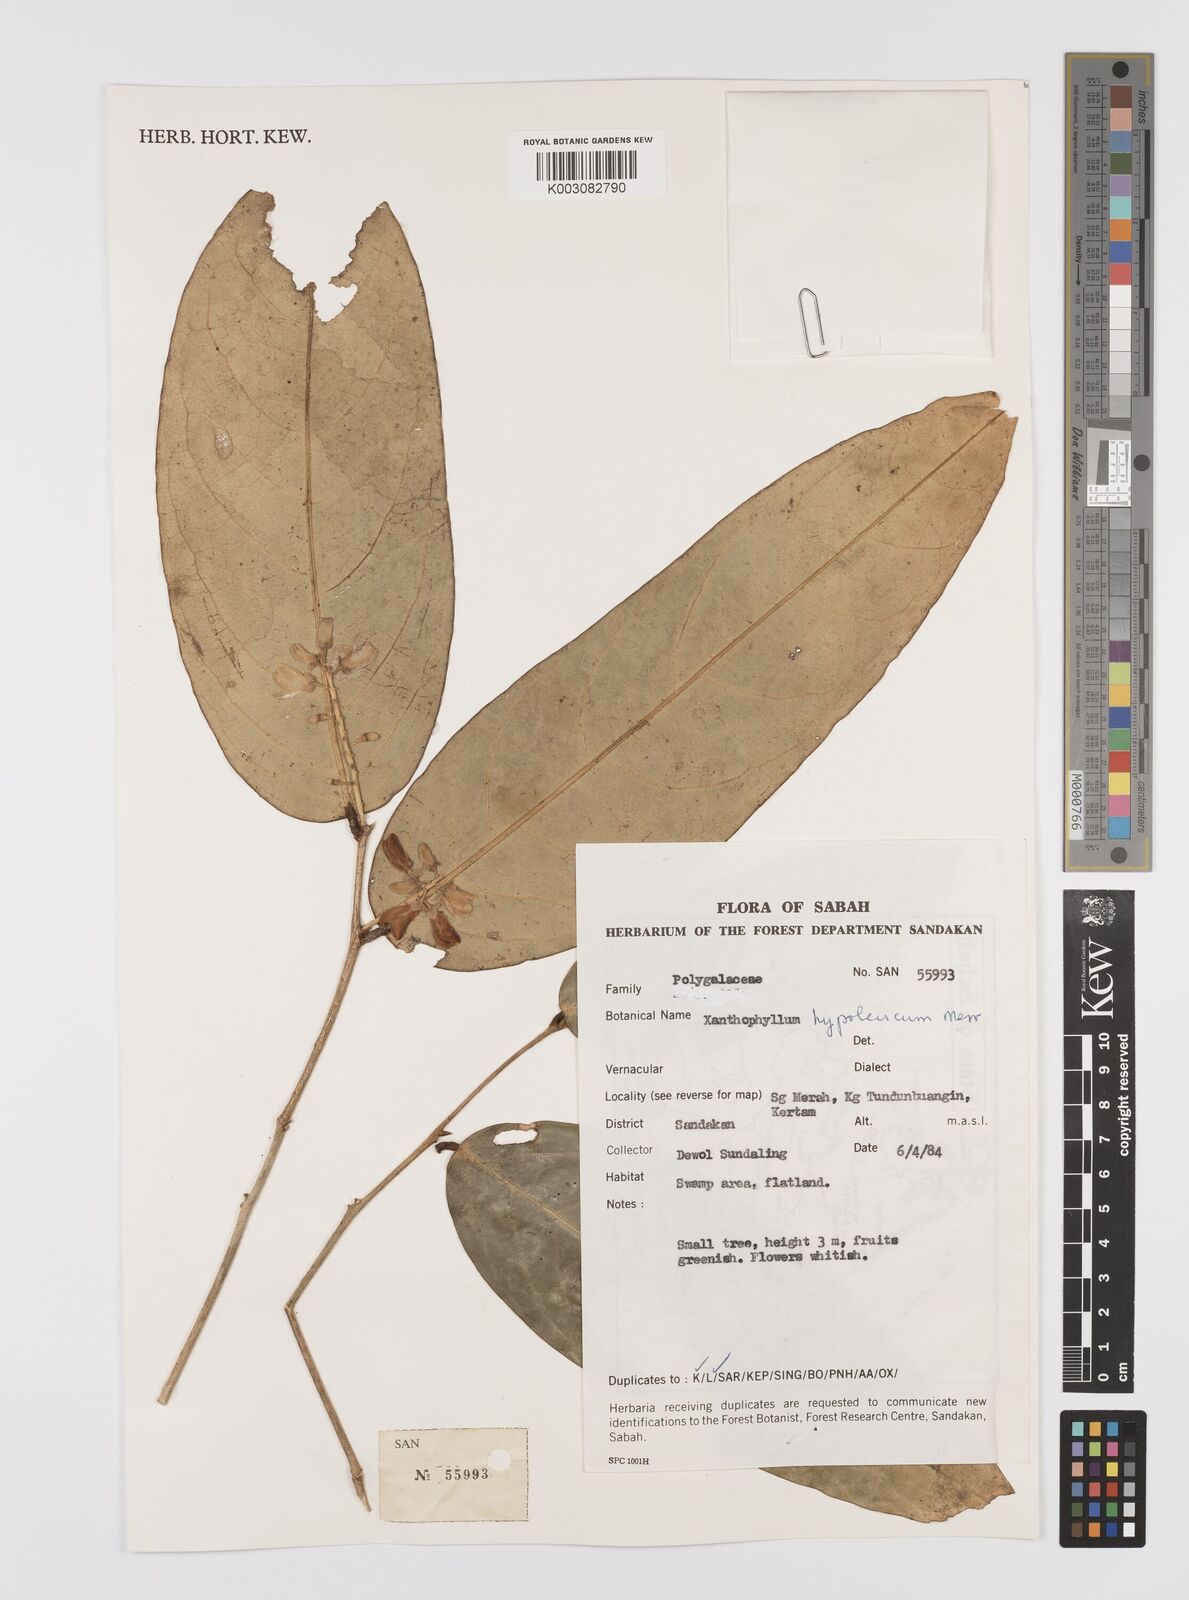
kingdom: Plantae
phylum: Tracheophyta
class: Magnoliopsida
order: Fabales
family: Polygalaceae
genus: Xanthophyllum
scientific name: Xanthophyllum discolor
